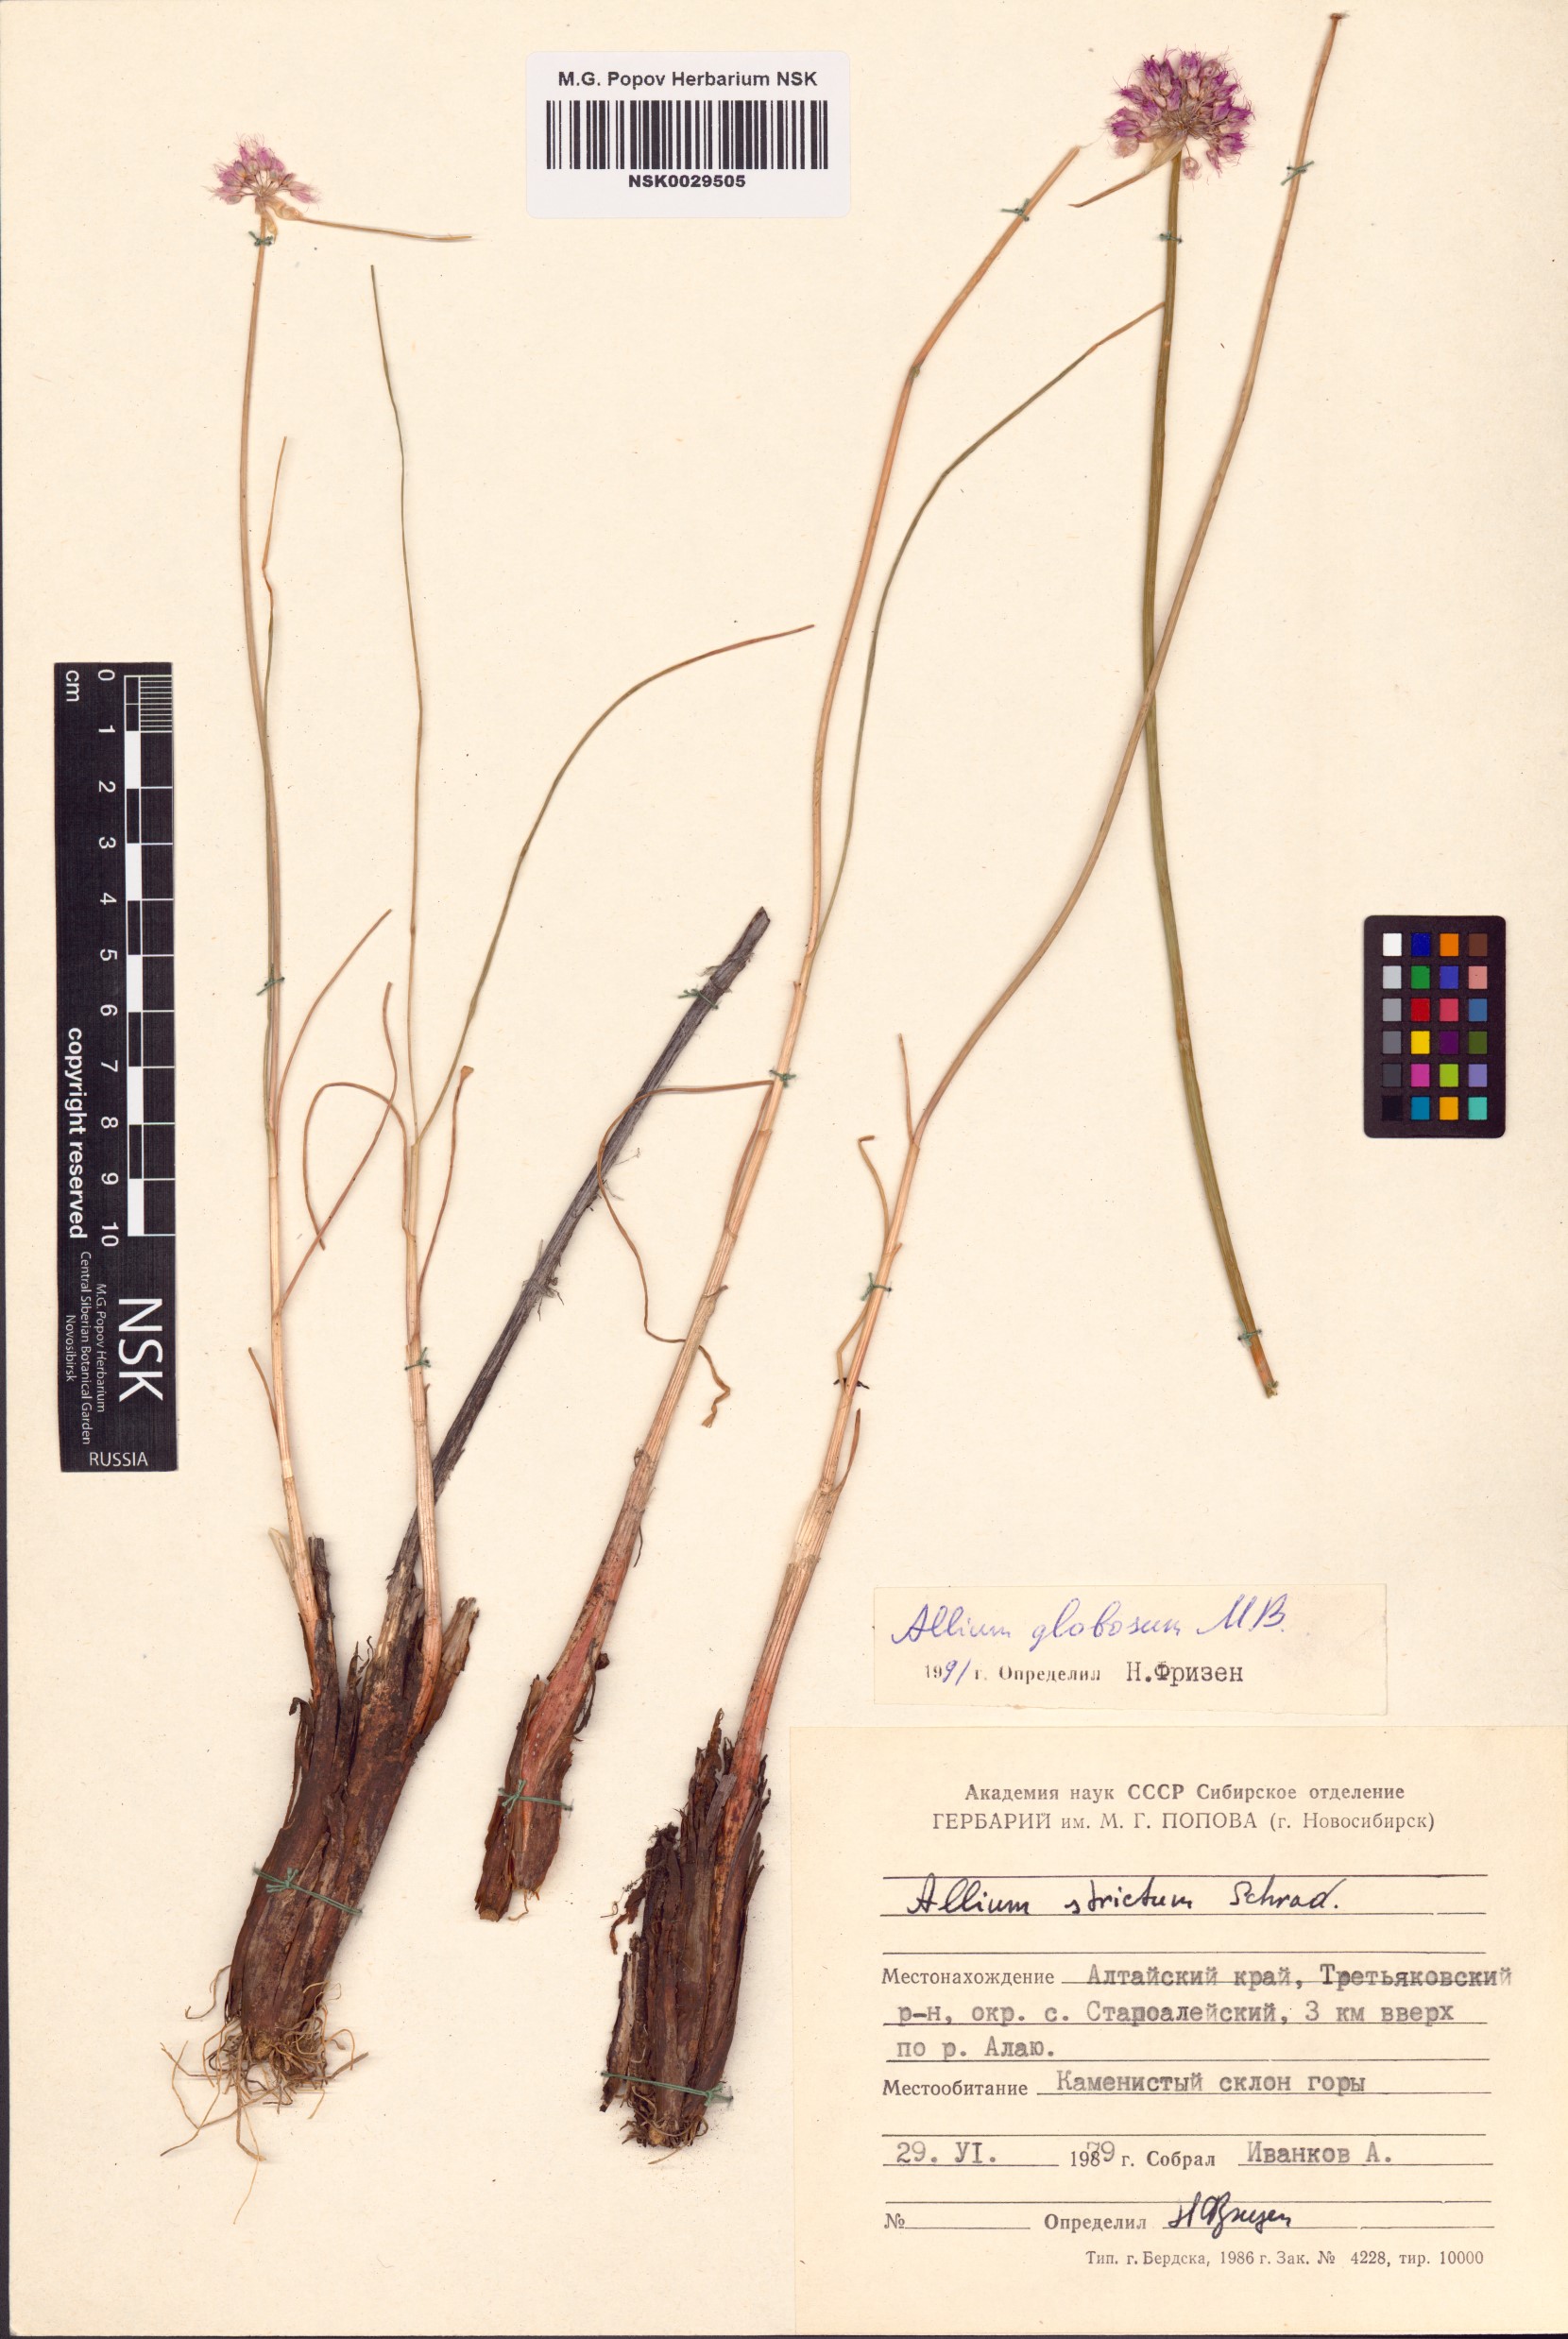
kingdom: Plantae
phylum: Tracheophyta
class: Liliopsida
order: Asparagales
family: Amaryllidaceae
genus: Allium
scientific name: Allium saxatile
